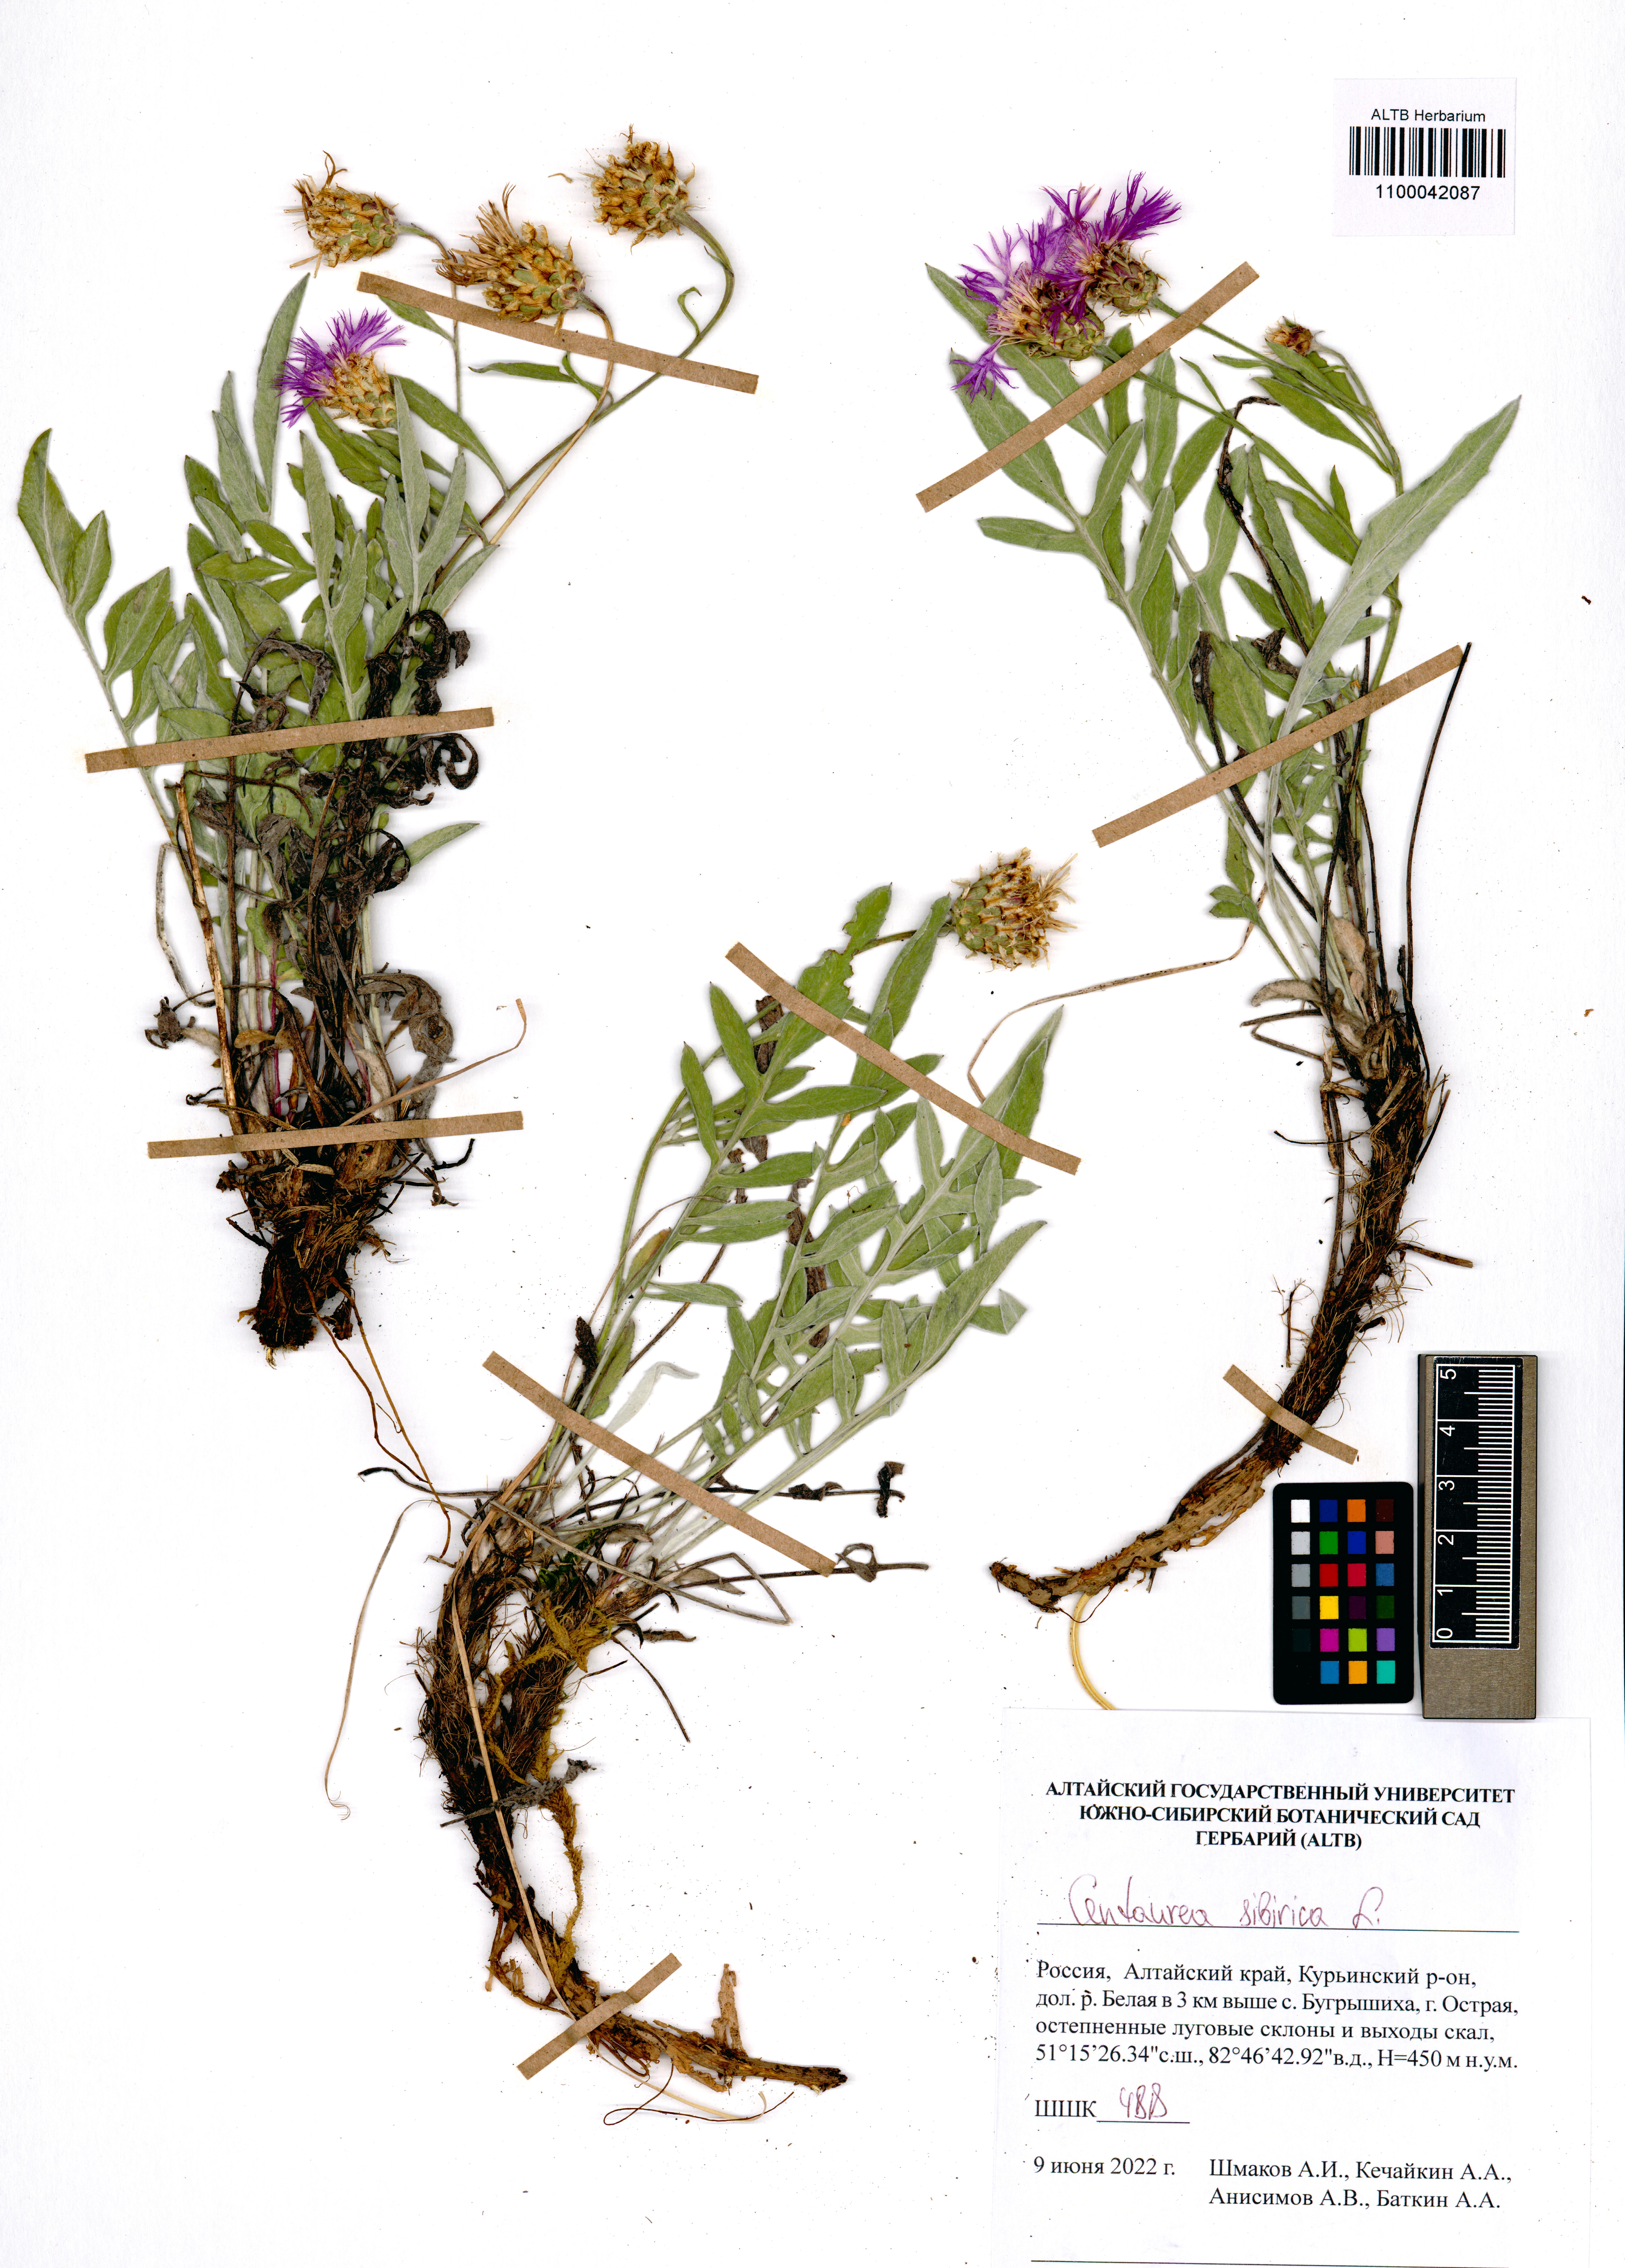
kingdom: Plantae
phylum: Tracheophyta
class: Magnoliopsida
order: Asterales
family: Asteraceae
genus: Psephellus
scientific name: Psephellus sibiricus
